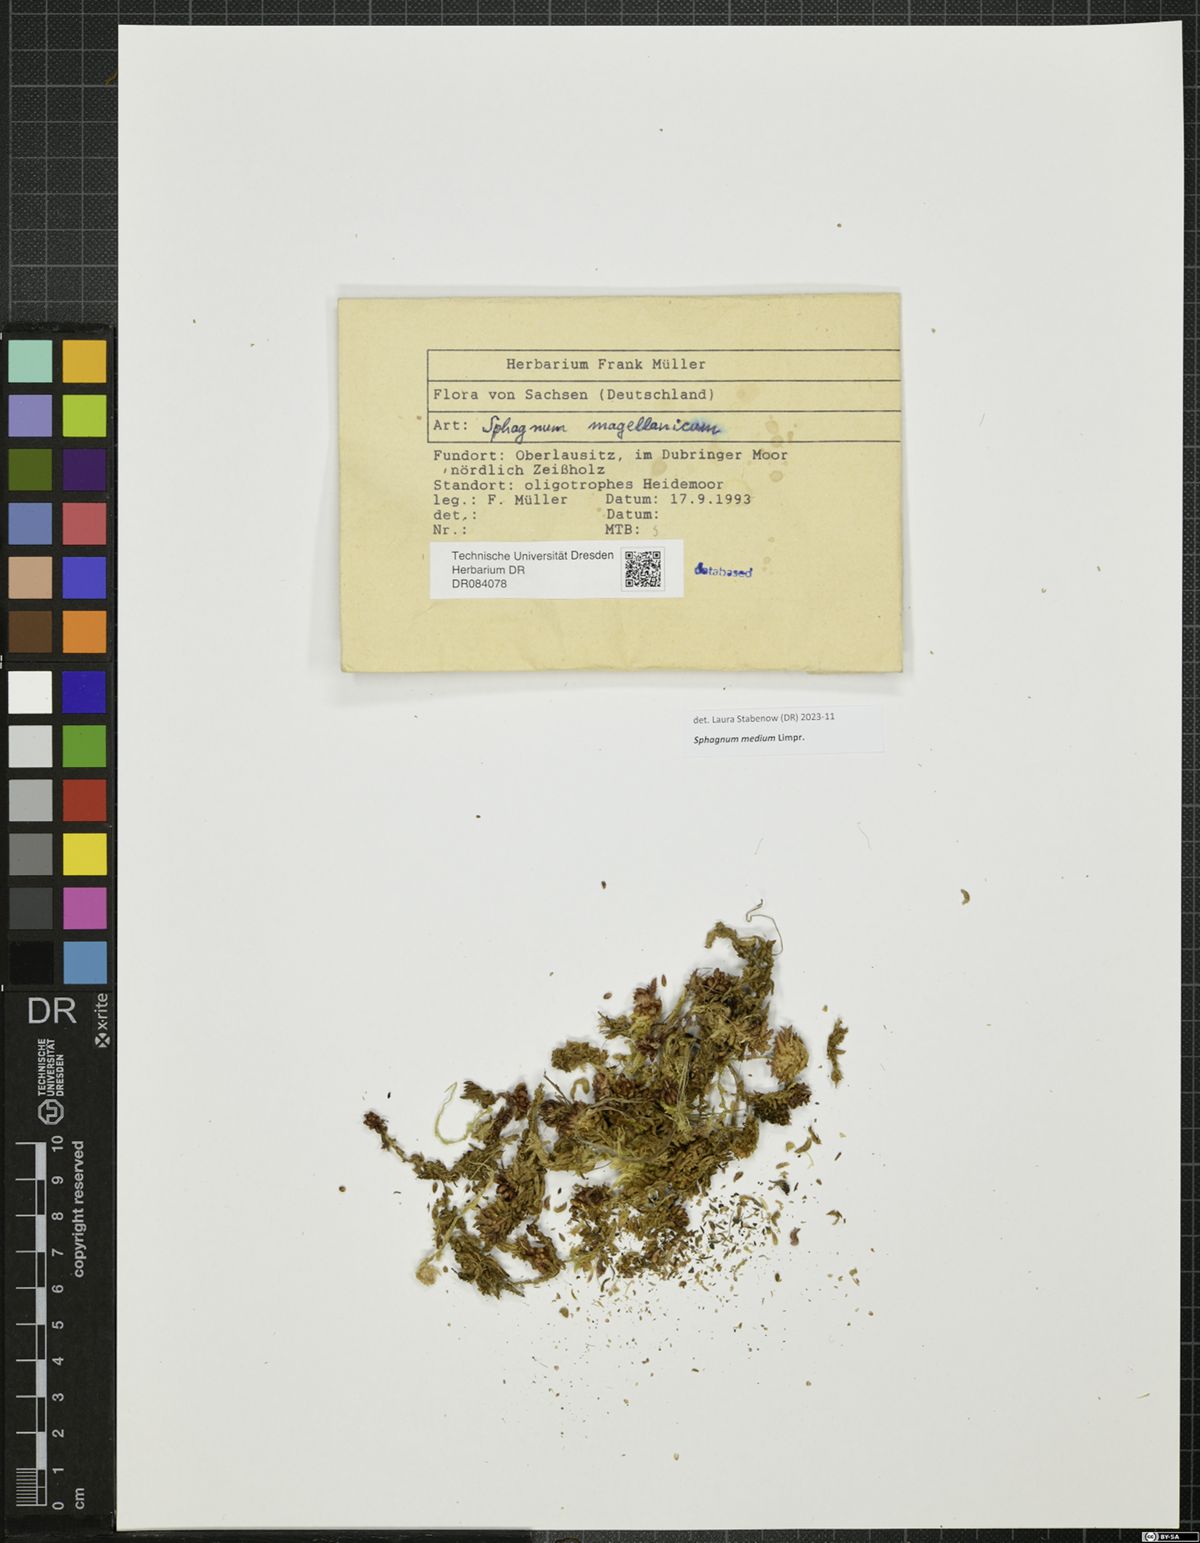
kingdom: Plantae
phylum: Bryophyta
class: Sphagnopsida
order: Sphagnales
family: Sphagnaceae
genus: Sphagnum
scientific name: Sphagnum medium
